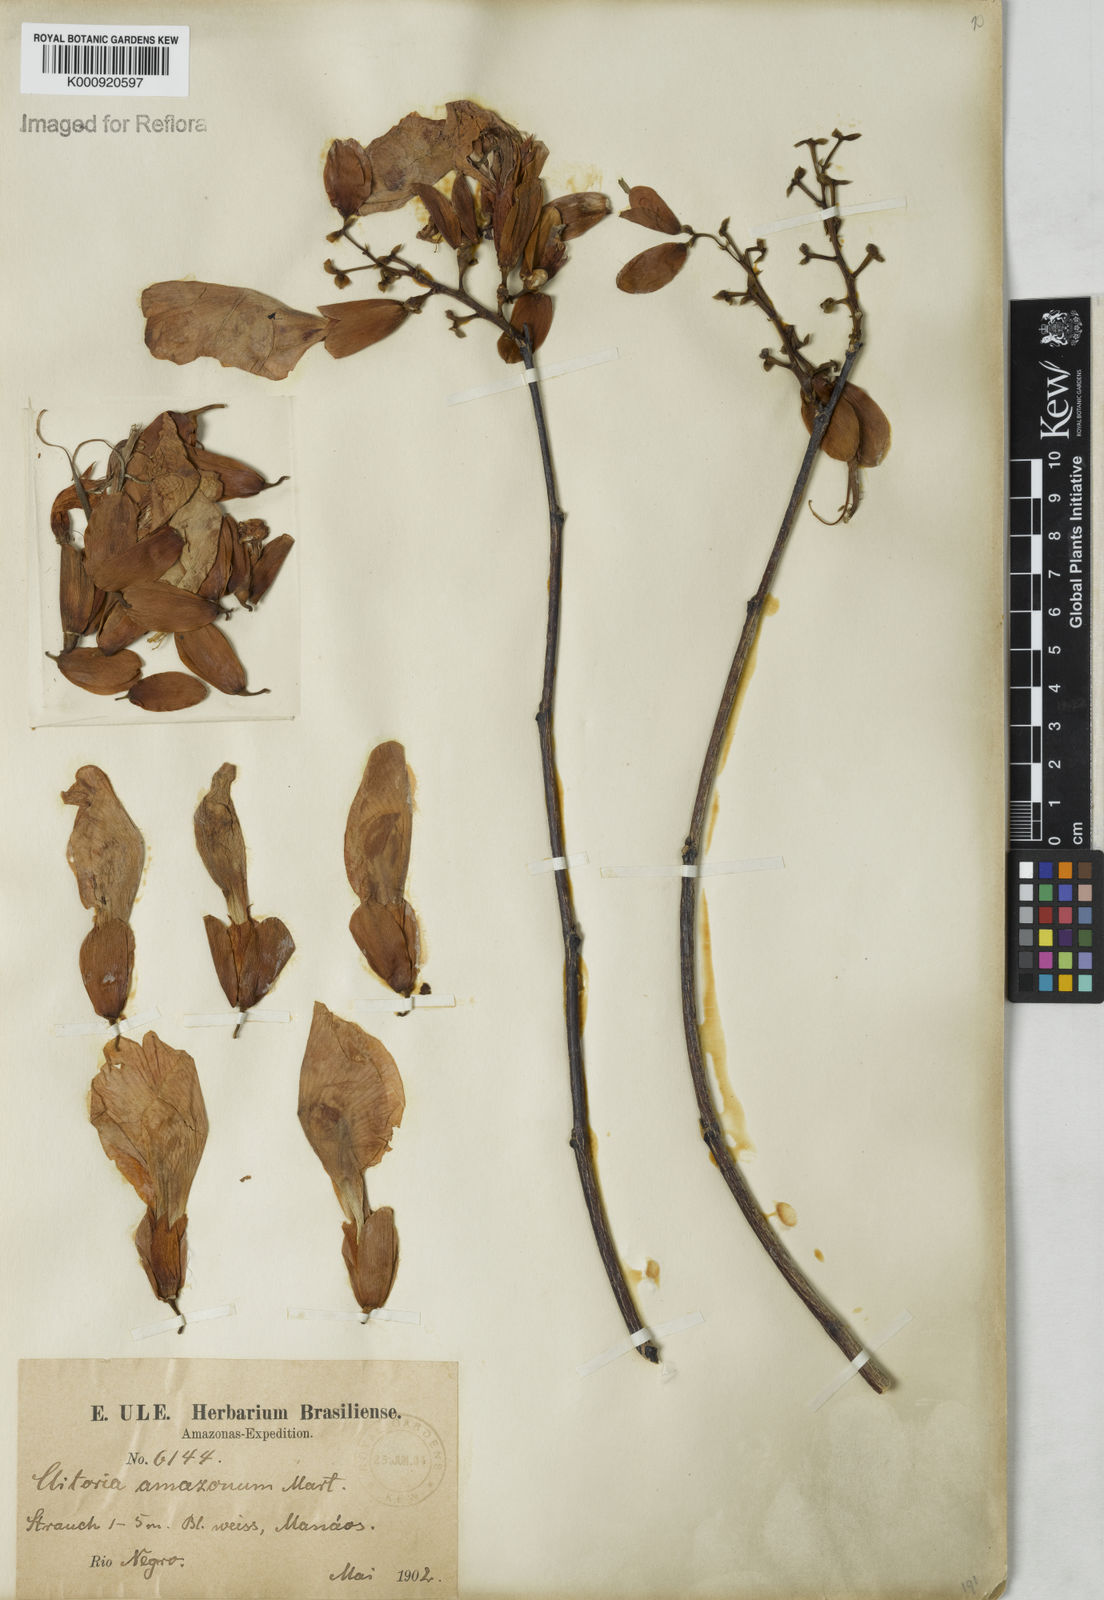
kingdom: Plantae
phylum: Tracheophyta
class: Magnoliopsida
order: Fabales
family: Fabaceae
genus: Clitoria
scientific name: Clitoria amazonum
